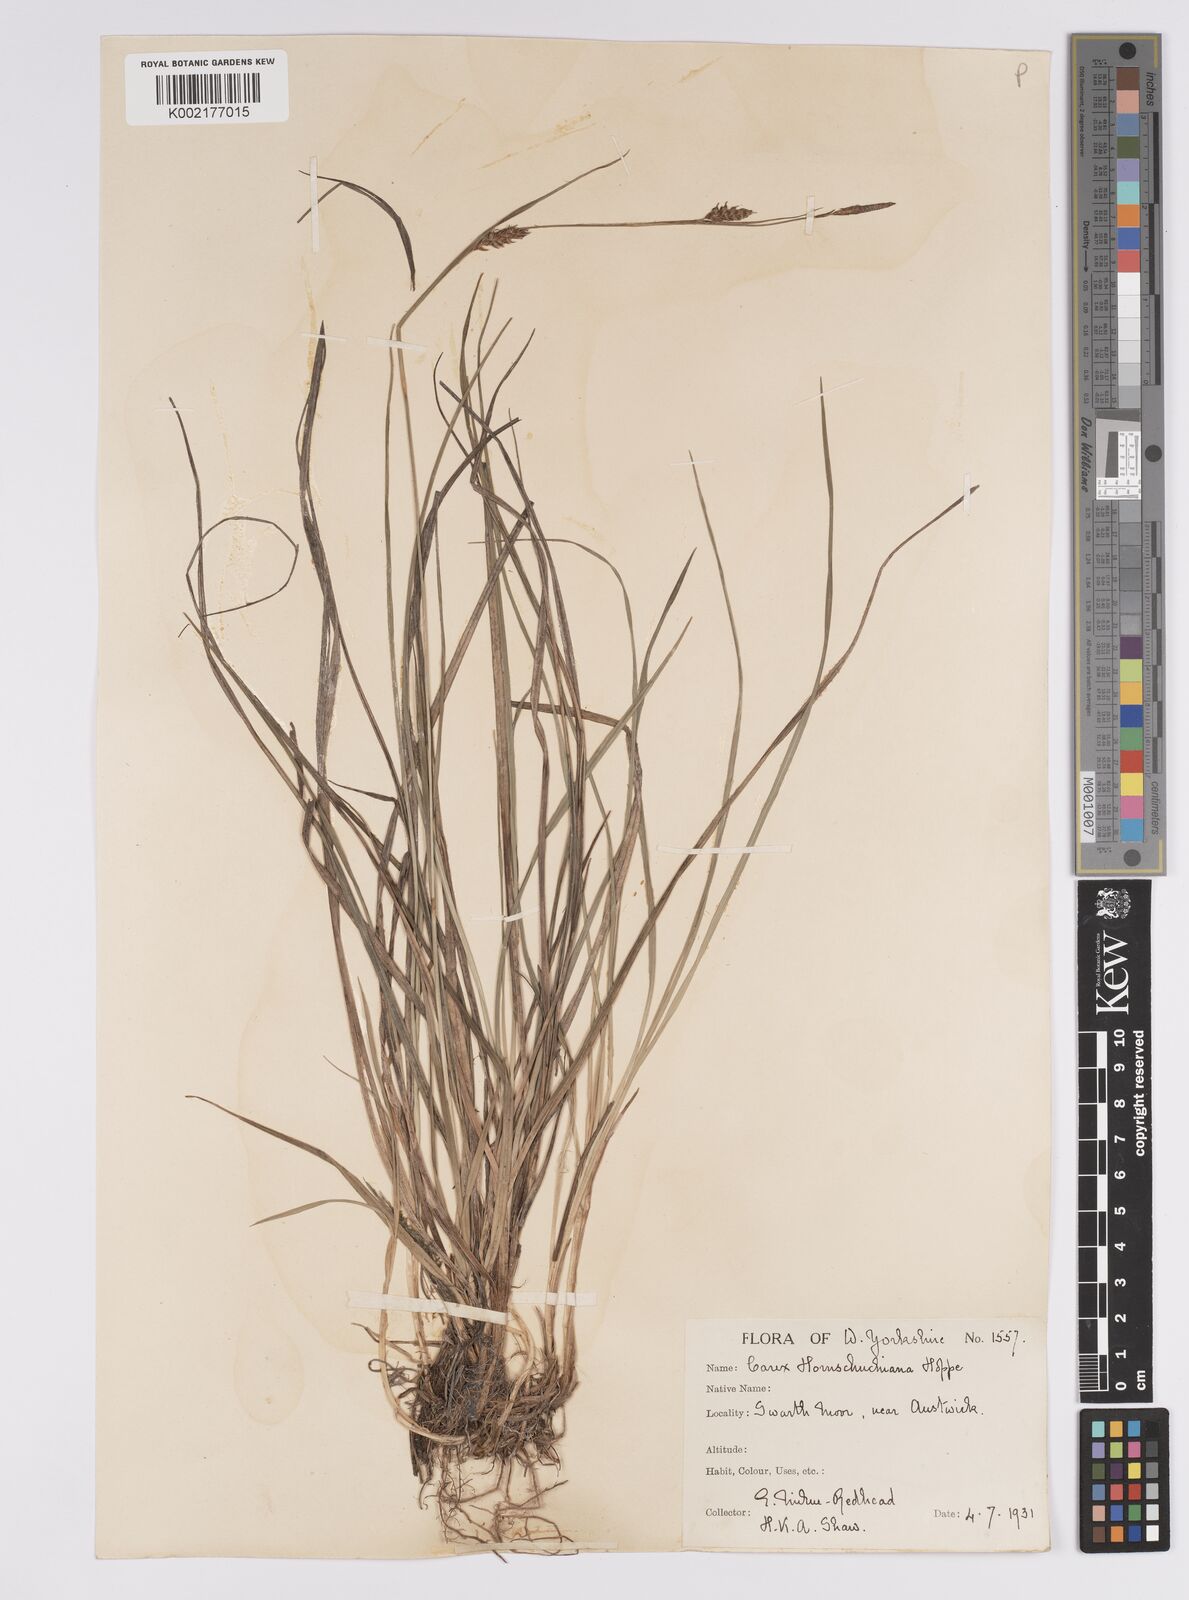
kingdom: Plantae
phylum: Tracheophyta
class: Liliopsida
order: Poales
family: Cyperaceae
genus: Carex
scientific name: Carex hostiana
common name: Tawny sedge
